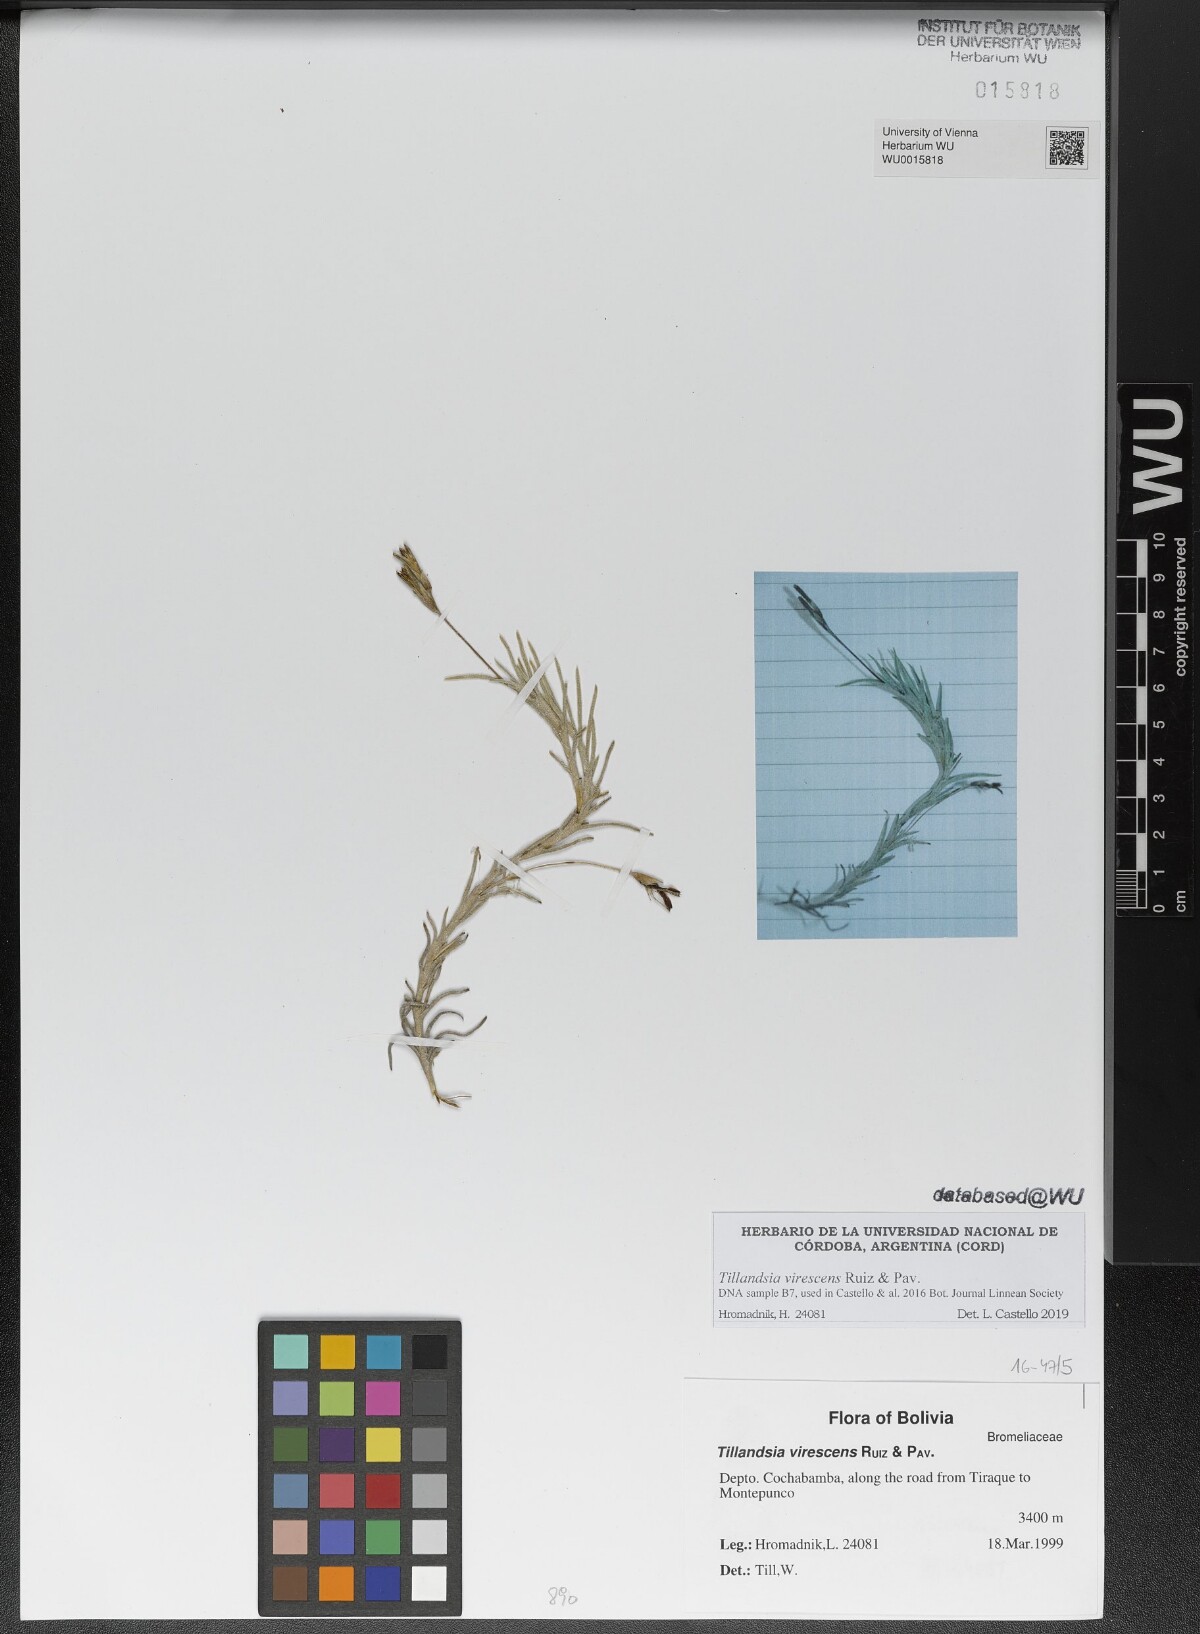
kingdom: Plantae
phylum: Tracheophyta
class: Liliopsida
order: Poales
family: Bromeliaceae
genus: Tillandsia
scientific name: Tillandsia virescens
